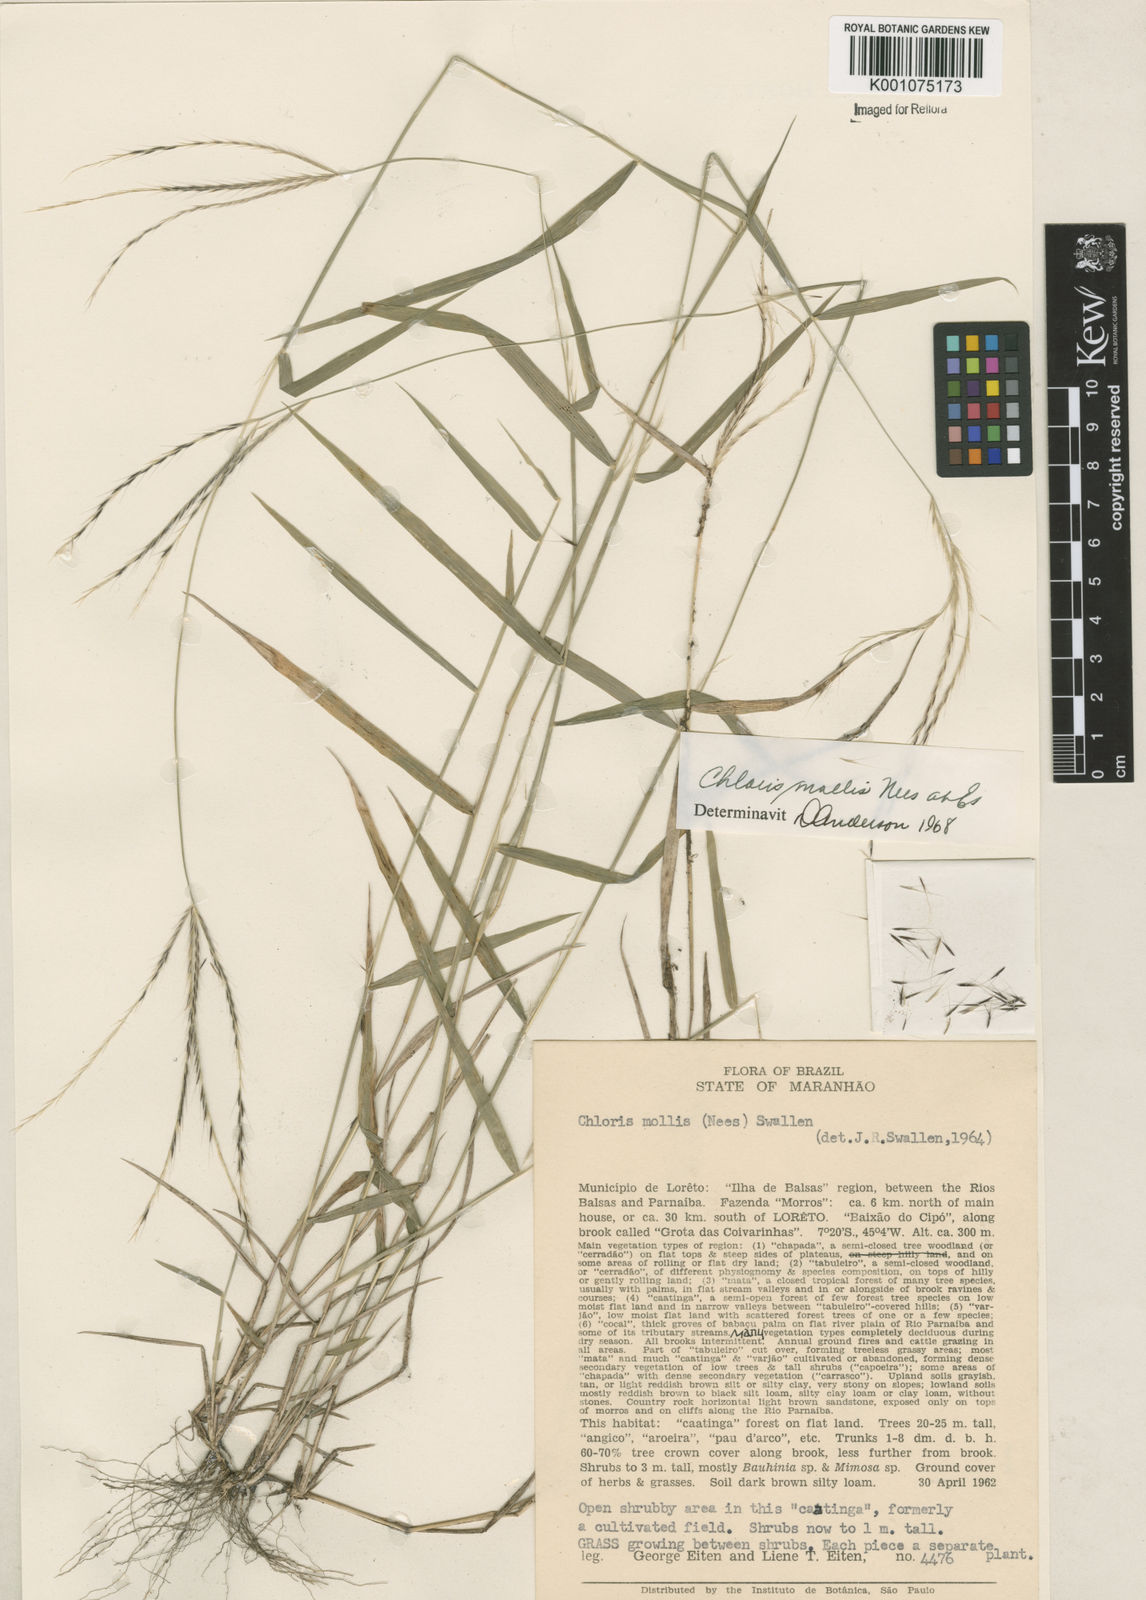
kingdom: Plantae
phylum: Tracheophyta
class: Liliopsida
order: Poales
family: Poaceae
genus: Leptochloa
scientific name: Leptochloa anisopoda
